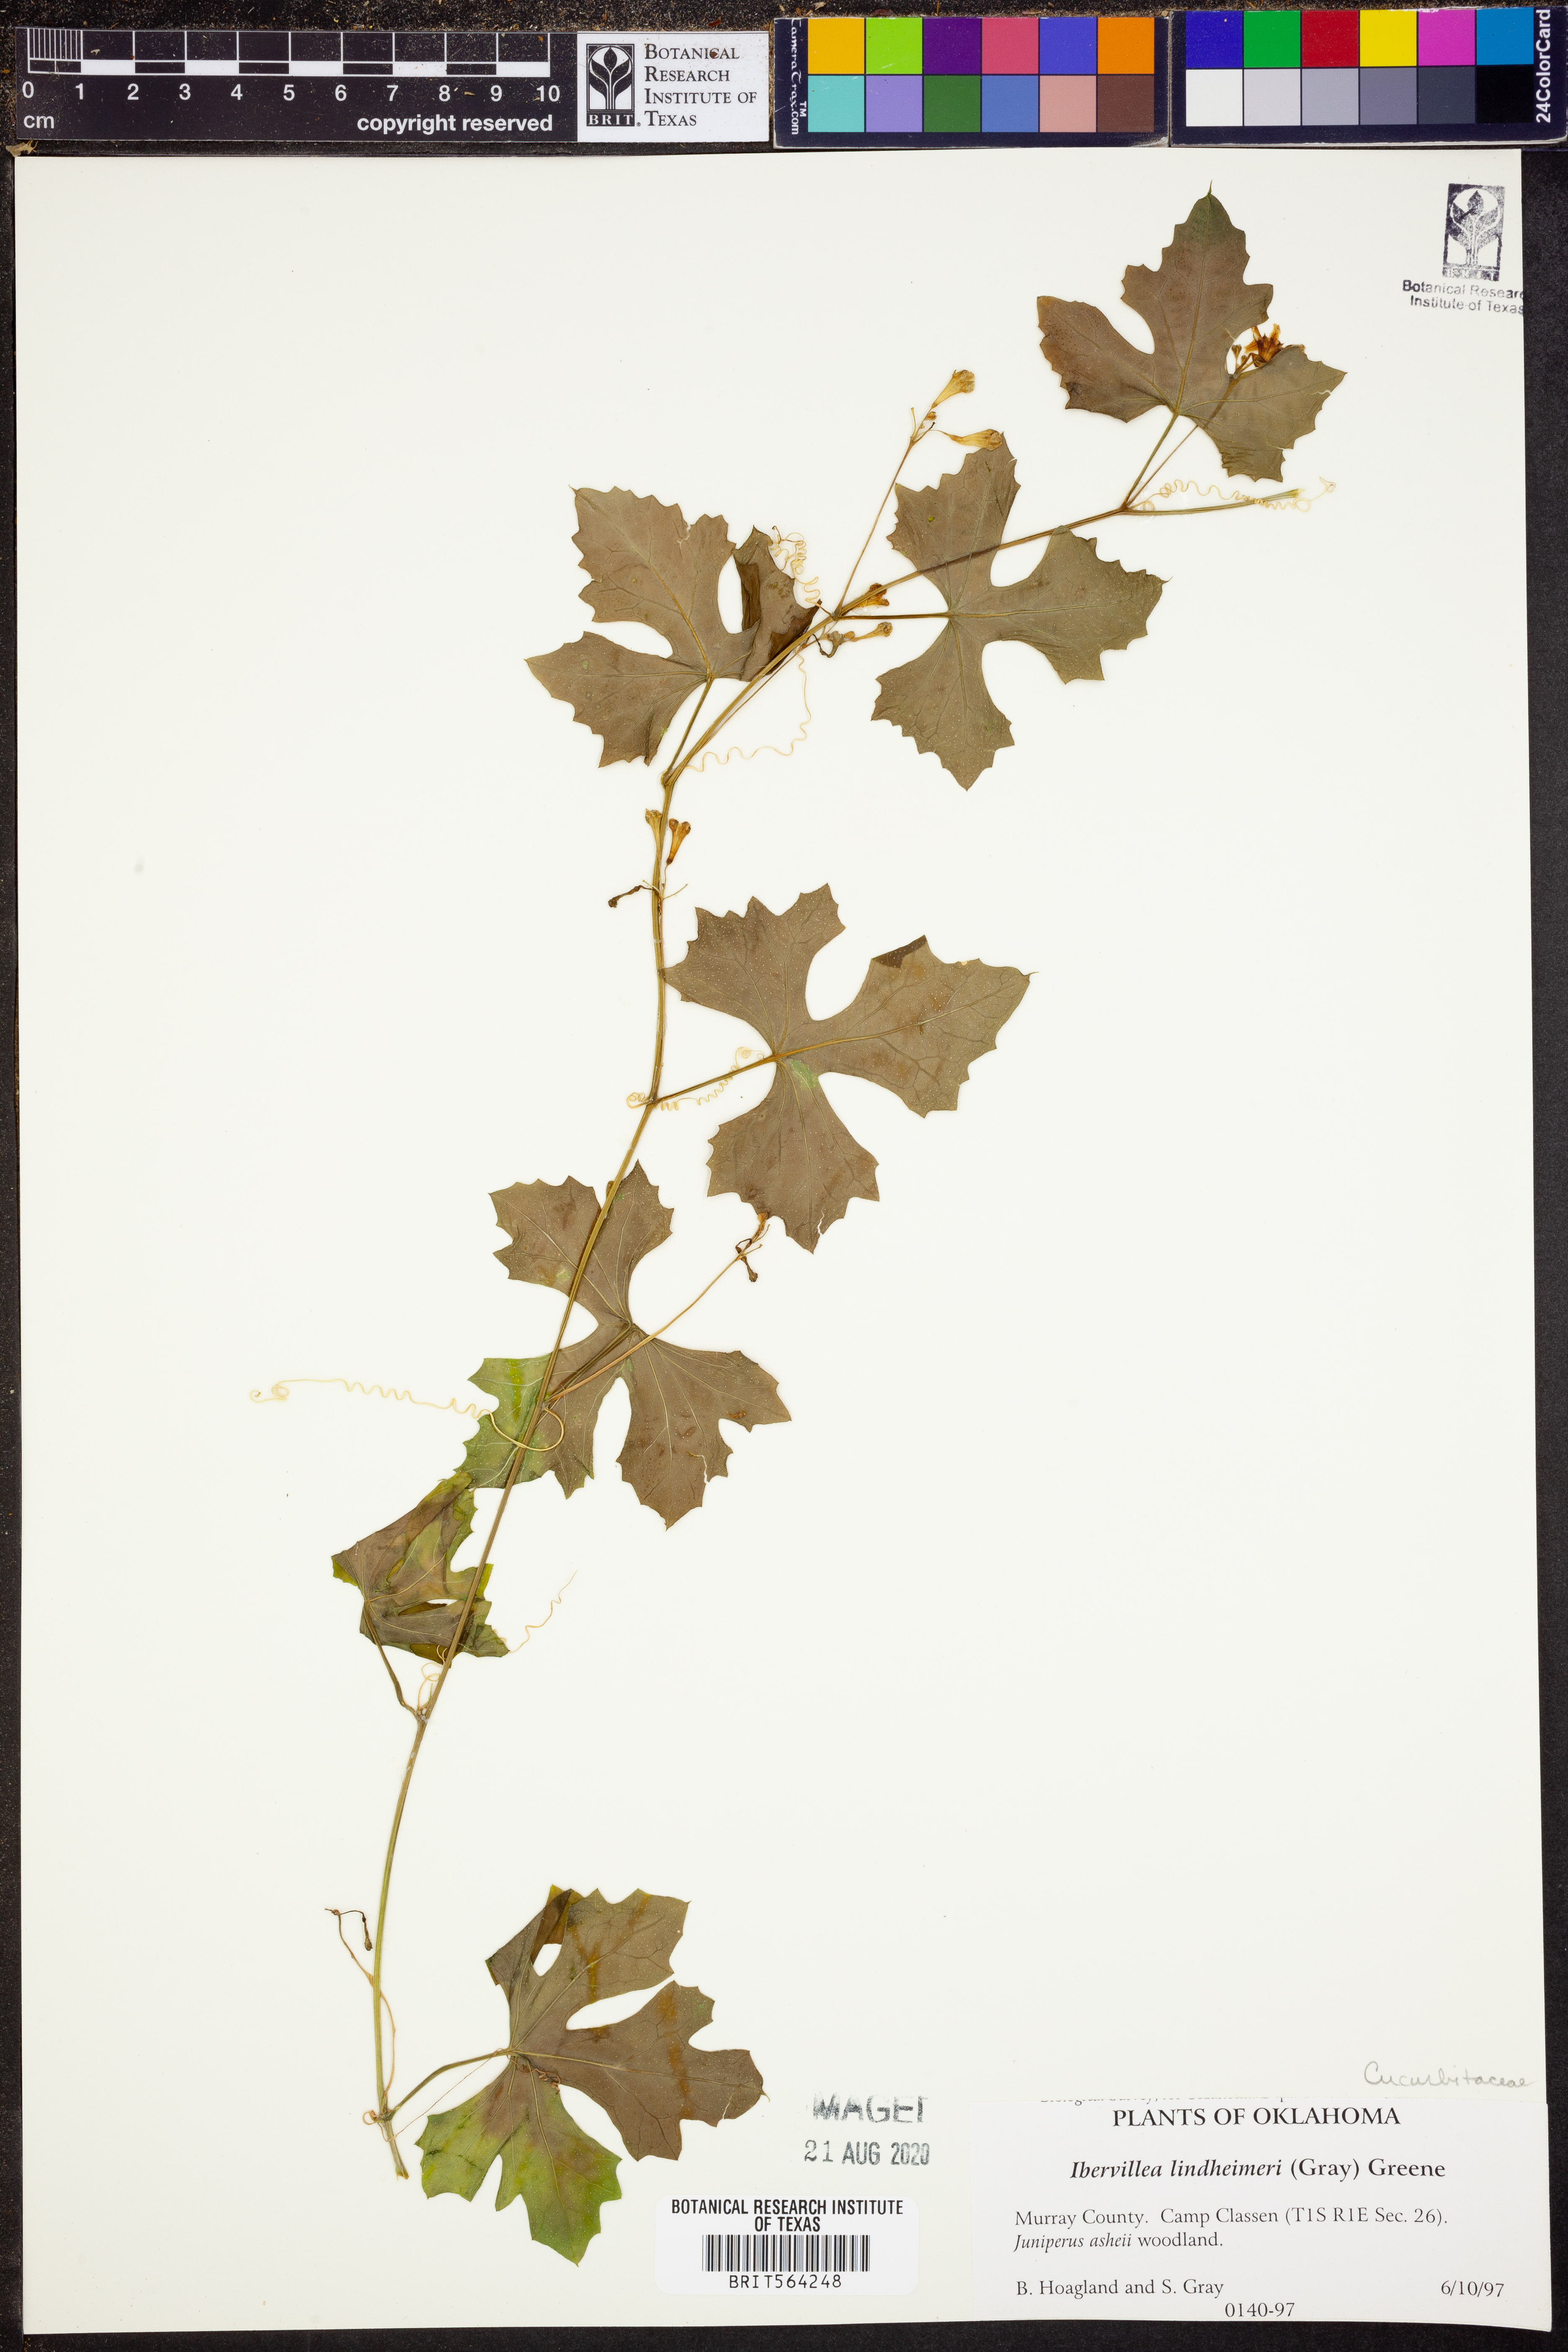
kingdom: Plantae
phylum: Tracheophyta
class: Magnoliopsida
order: Cucurbitales
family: Cucurbitaceae
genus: Ibervillea
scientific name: Ibervillea lindheimeri
